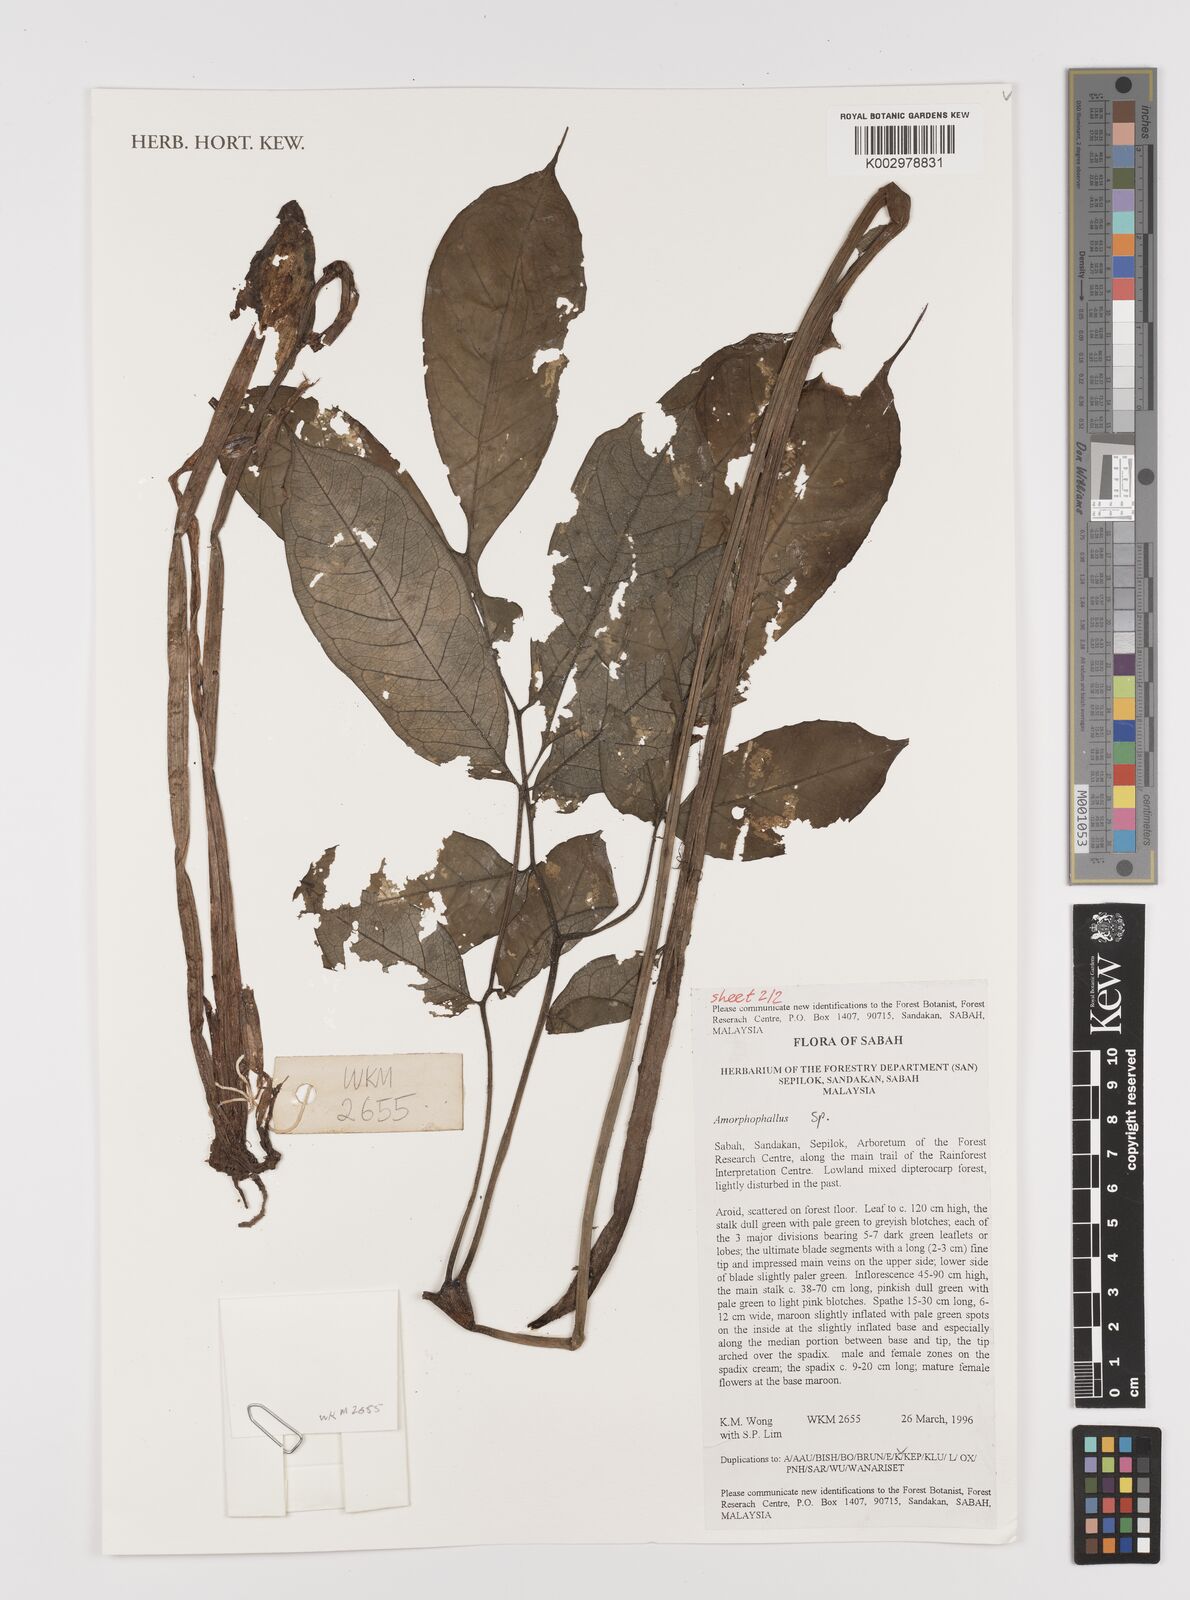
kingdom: Plantae
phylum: Tracheophyta
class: Liliopsida
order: Alismatales
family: Araceae
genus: Amorphophallus
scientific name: Amorphophallus
